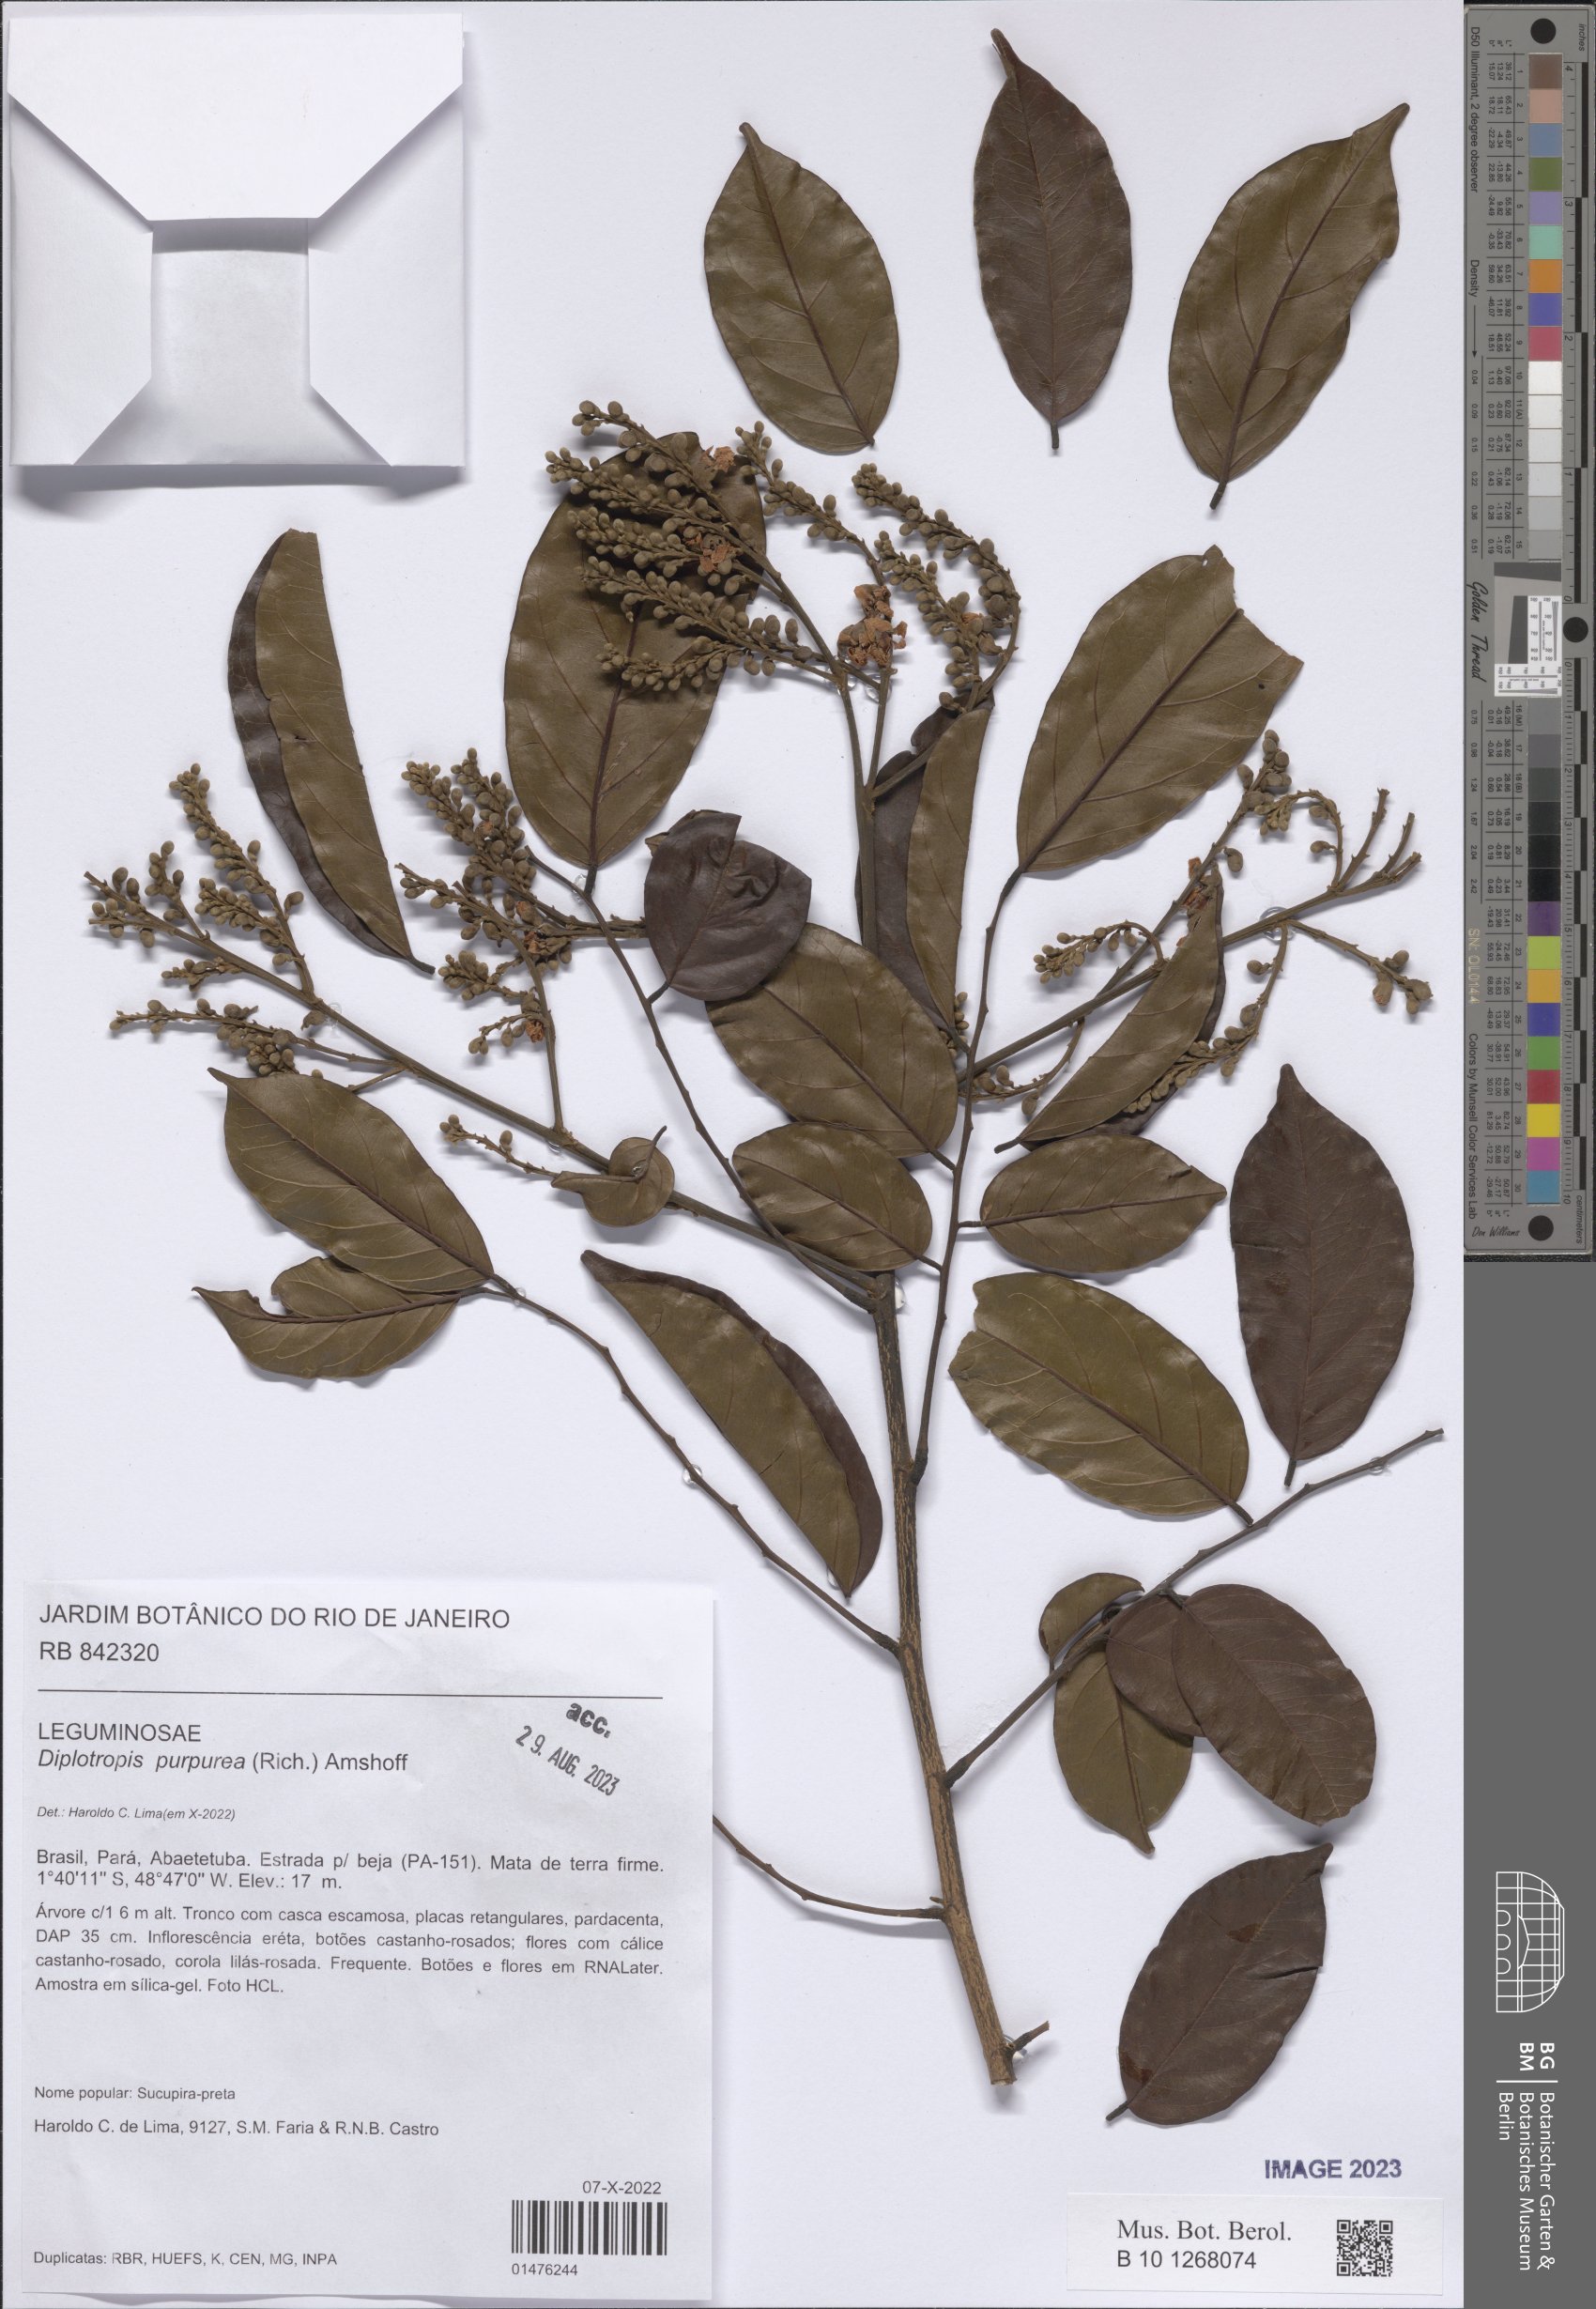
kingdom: Plantae
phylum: Tracheophyta
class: Magnoliopsida
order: Fabales
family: Fabaceae
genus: Diplotropis
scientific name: Diplotropis purpurea
